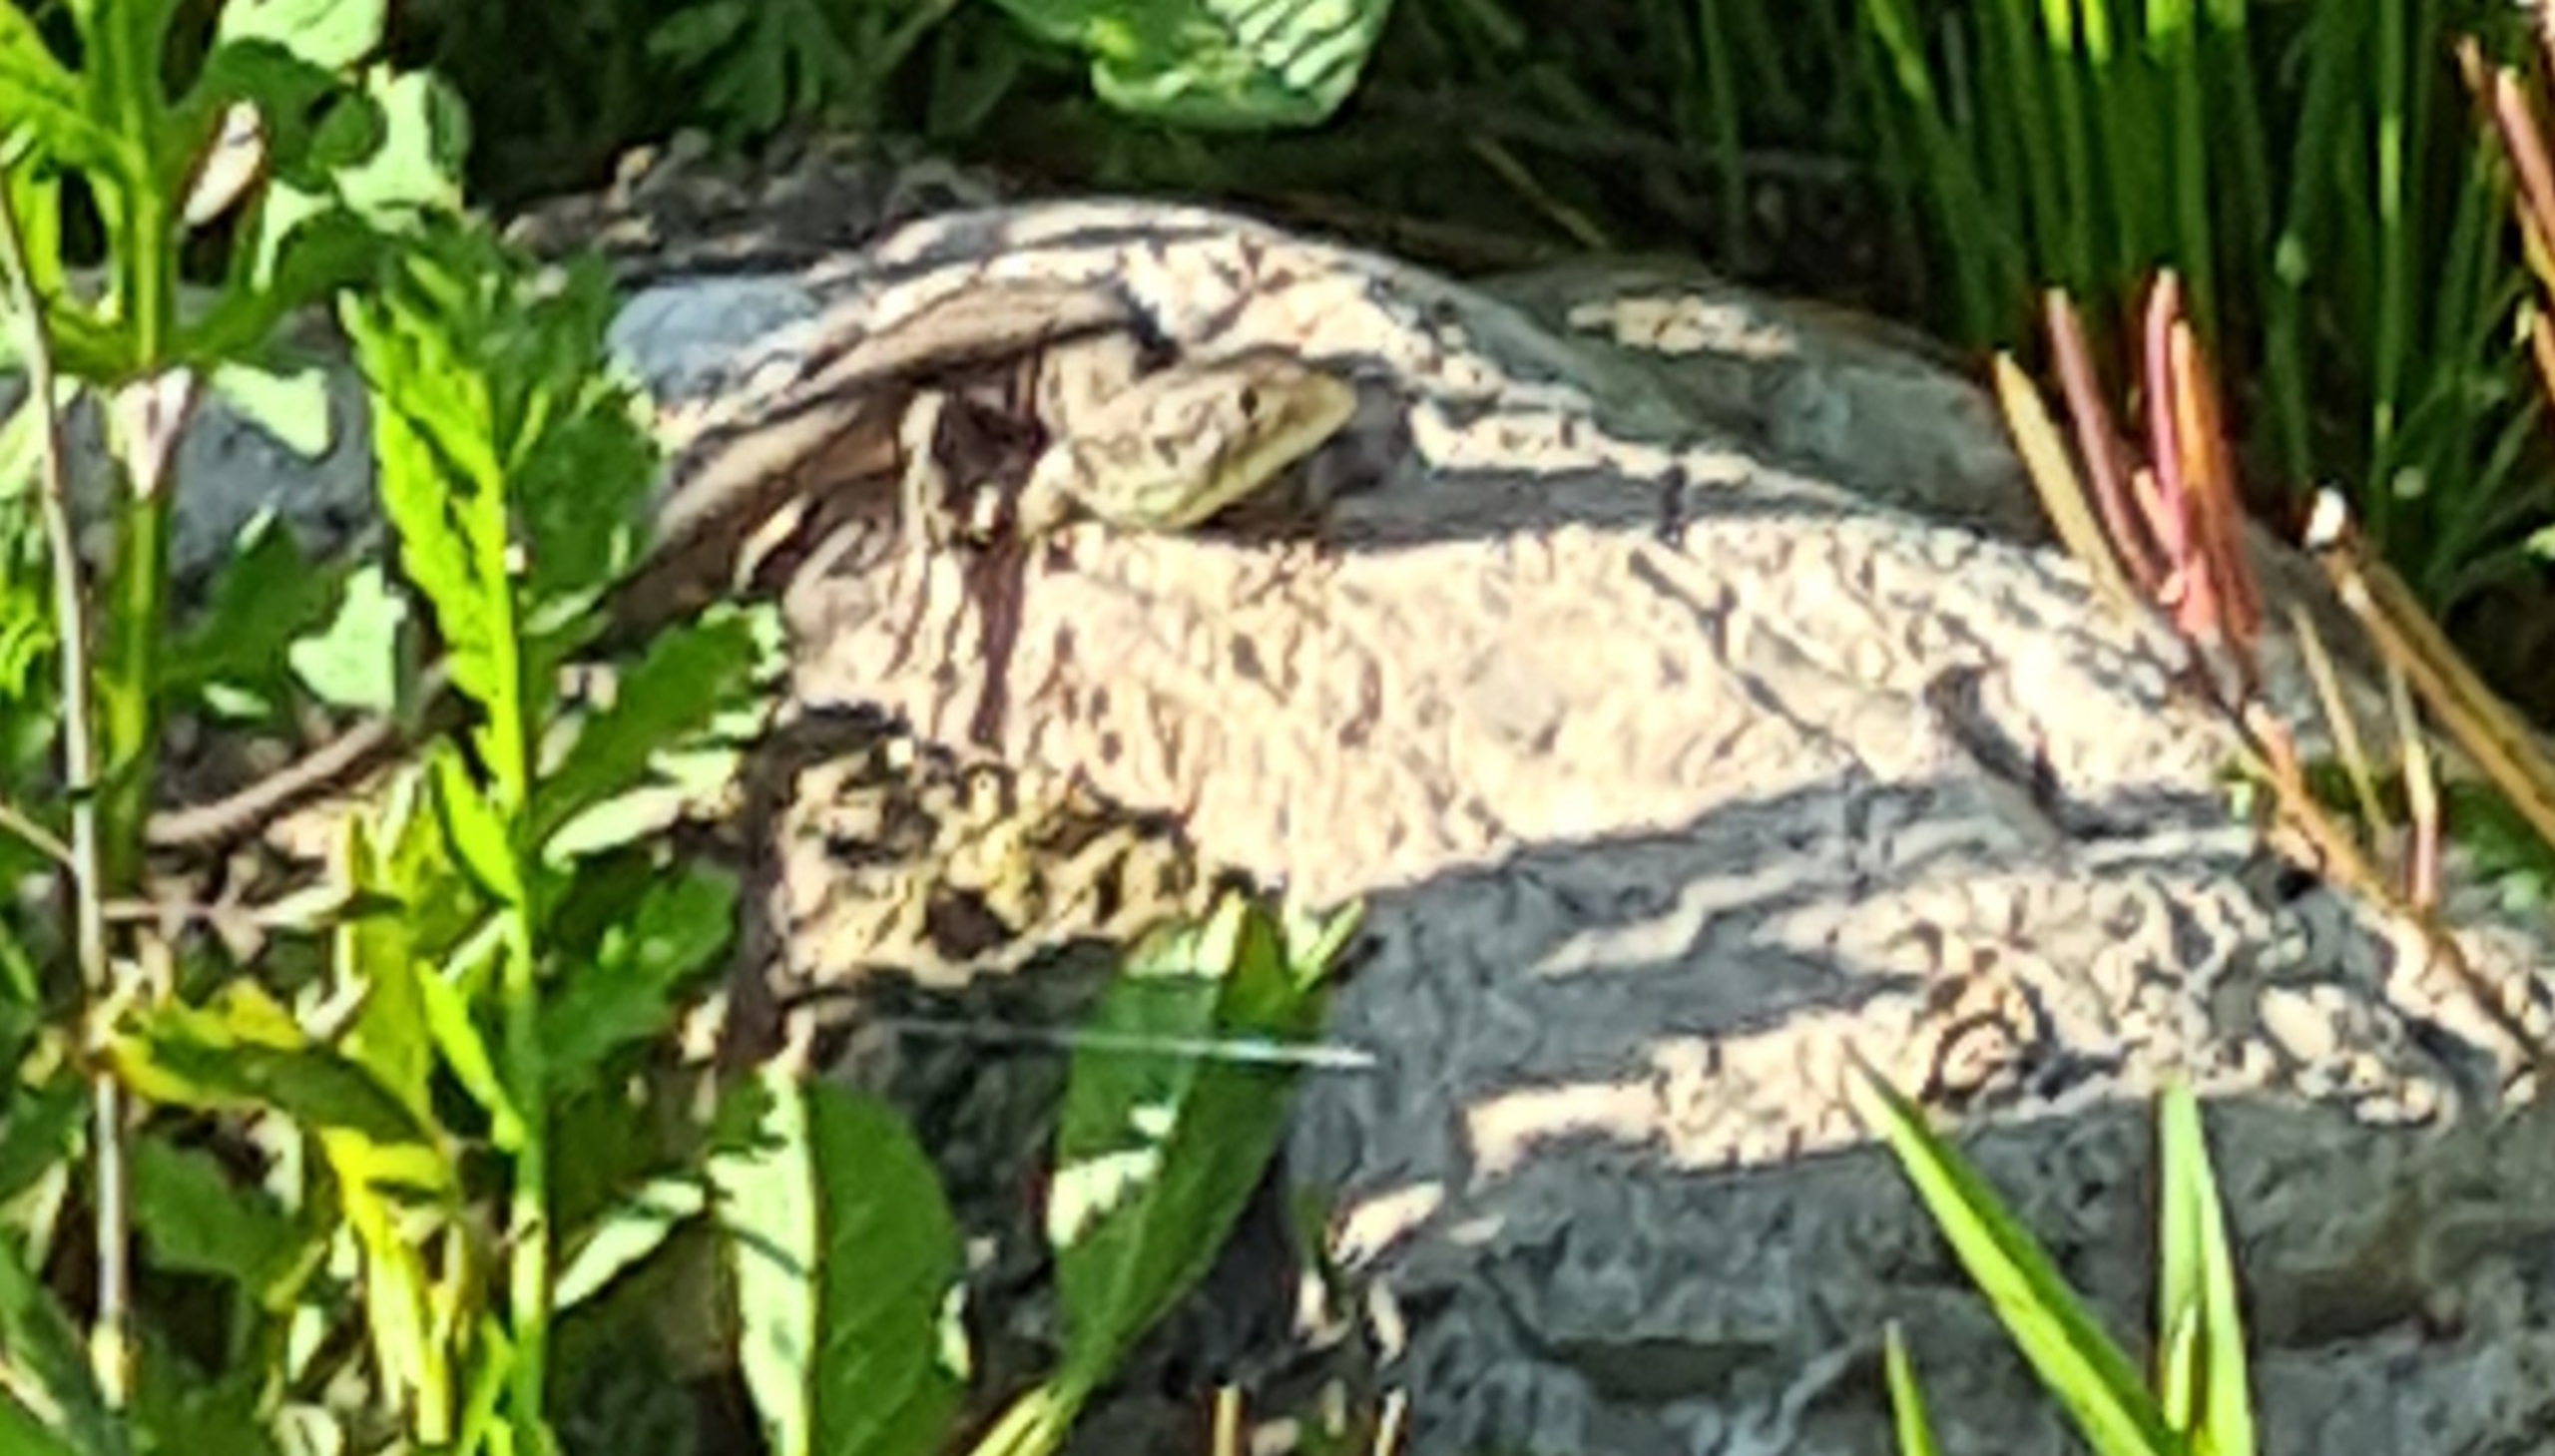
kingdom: Animalia
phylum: Chordata
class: Squamata
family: Lacertidae
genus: Lacerta
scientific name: Lacerta agilis
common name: Markfirben
